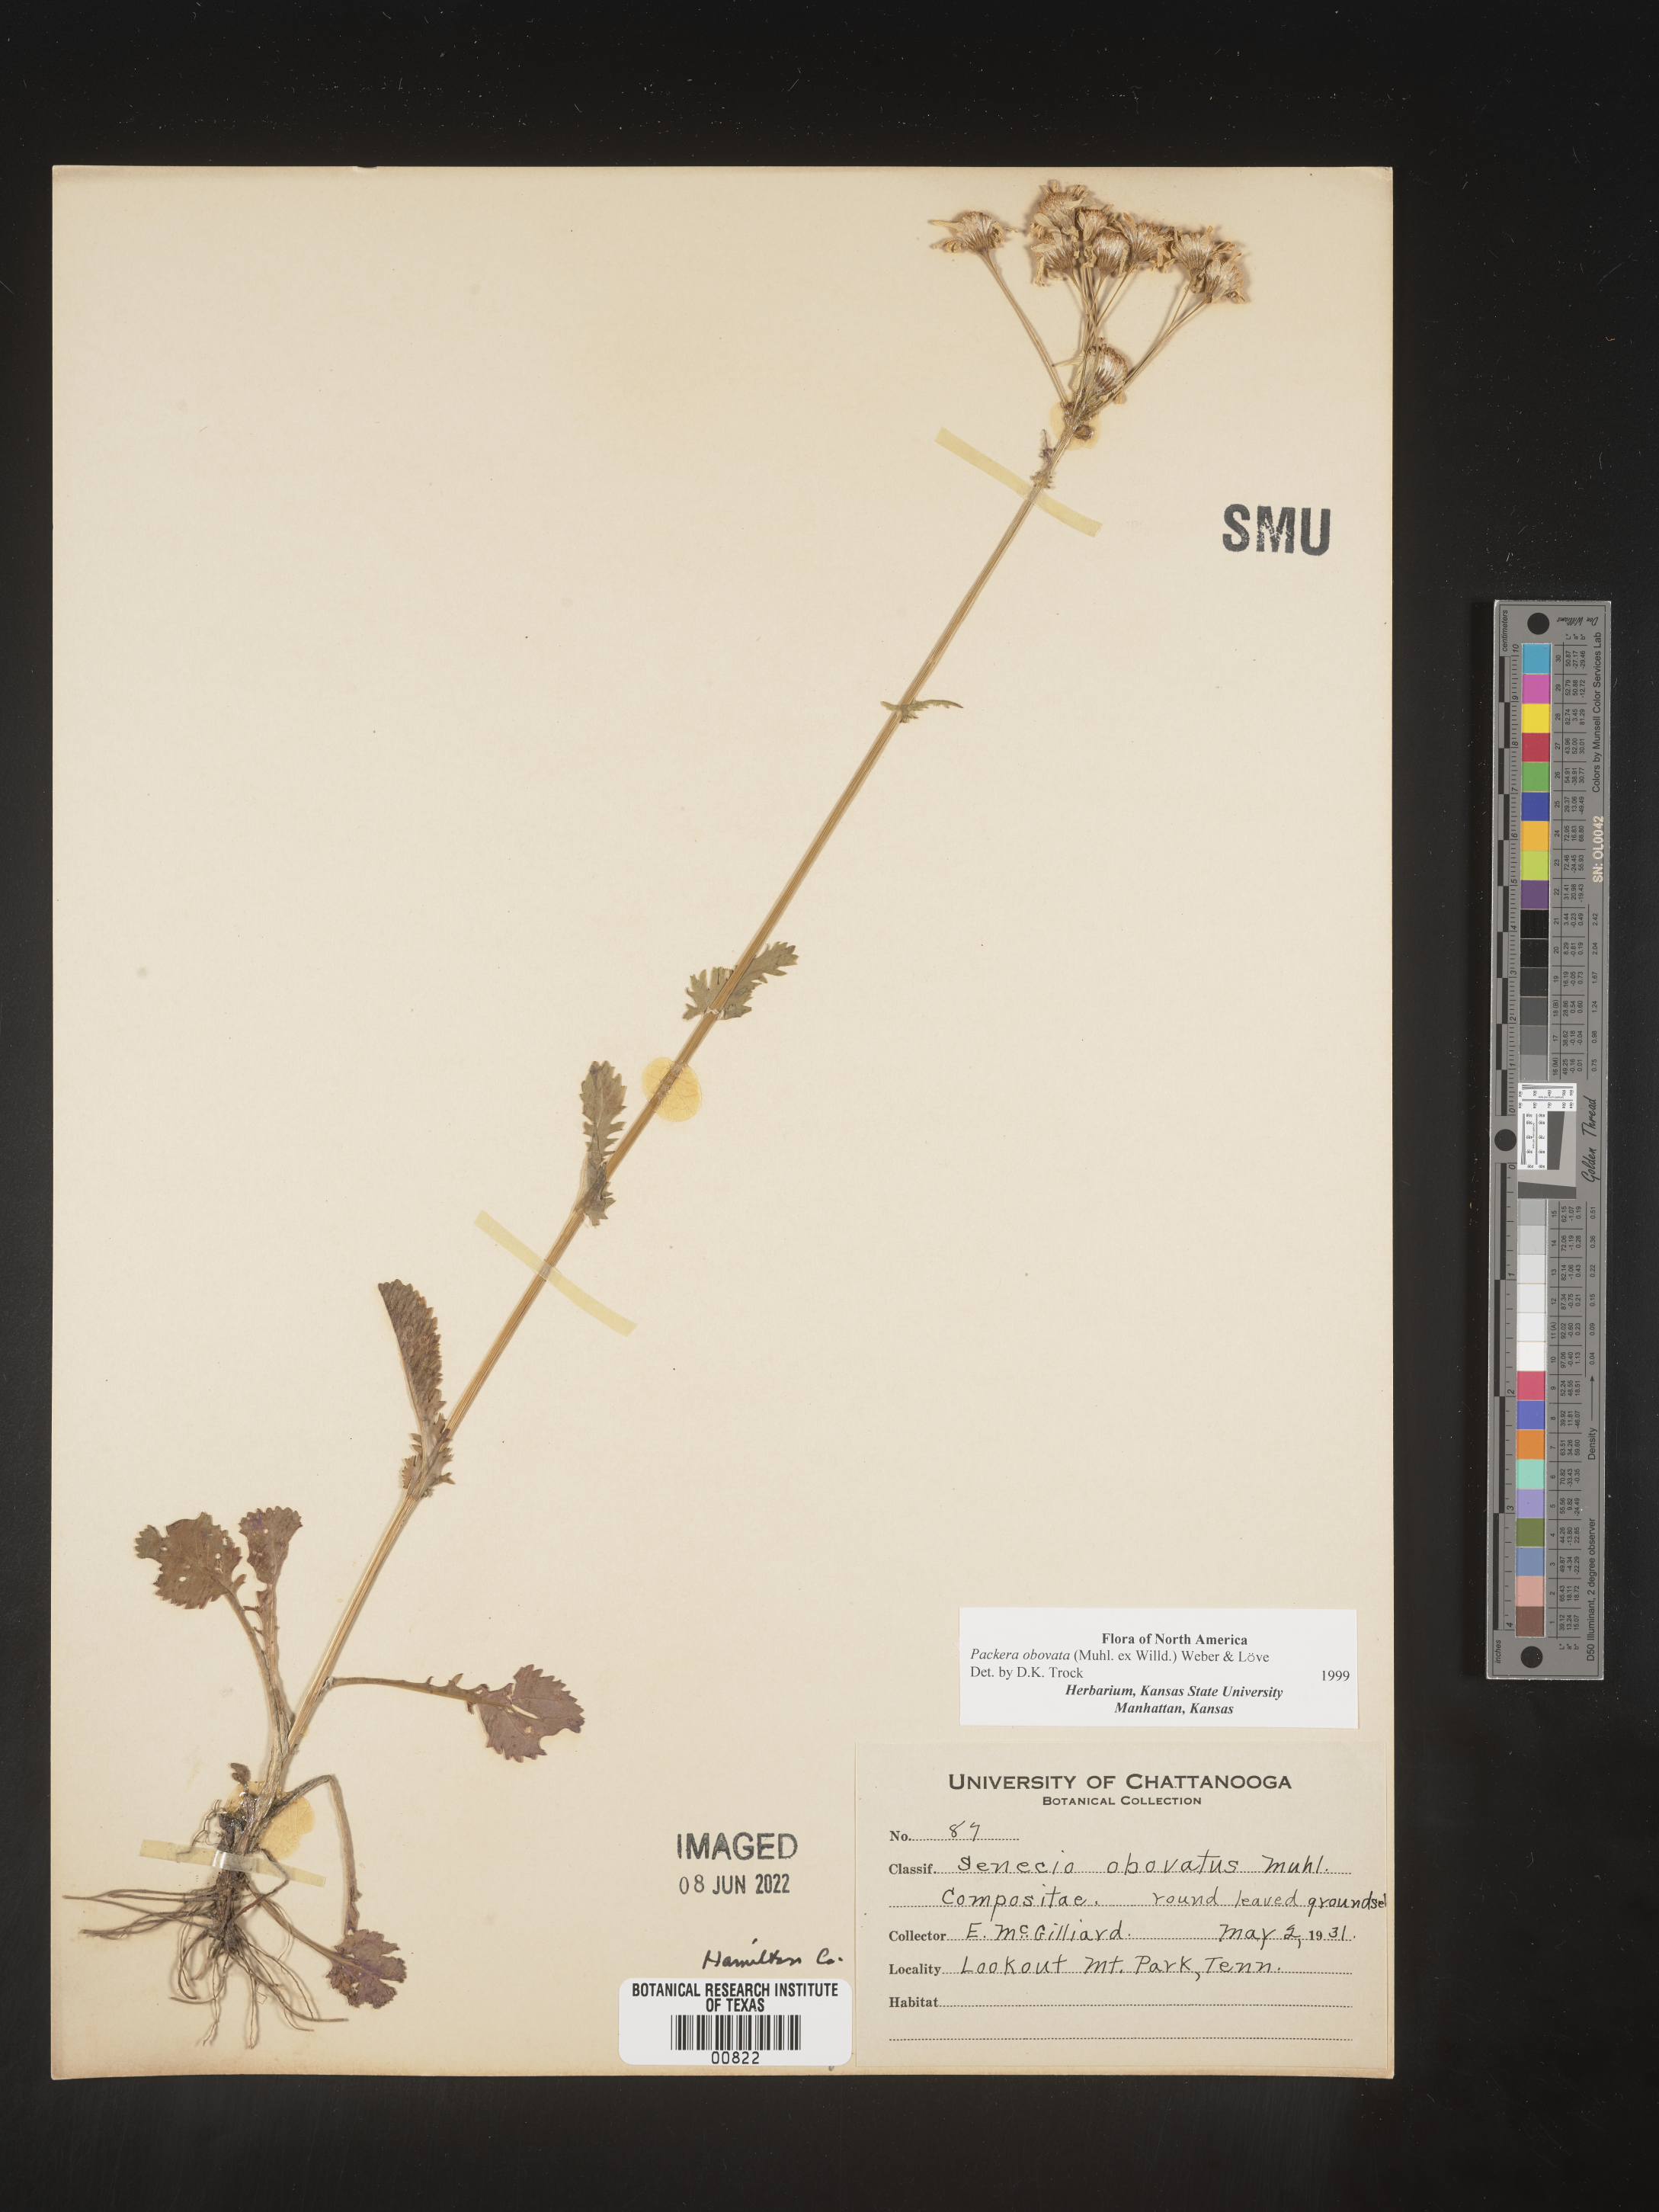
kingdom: Plantae
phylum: Tracheophyta
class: Magnoliopsida
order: Asterales
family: Asteraceae
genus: Packera
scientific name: Packera obovata
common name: Round-leaf ragwort
